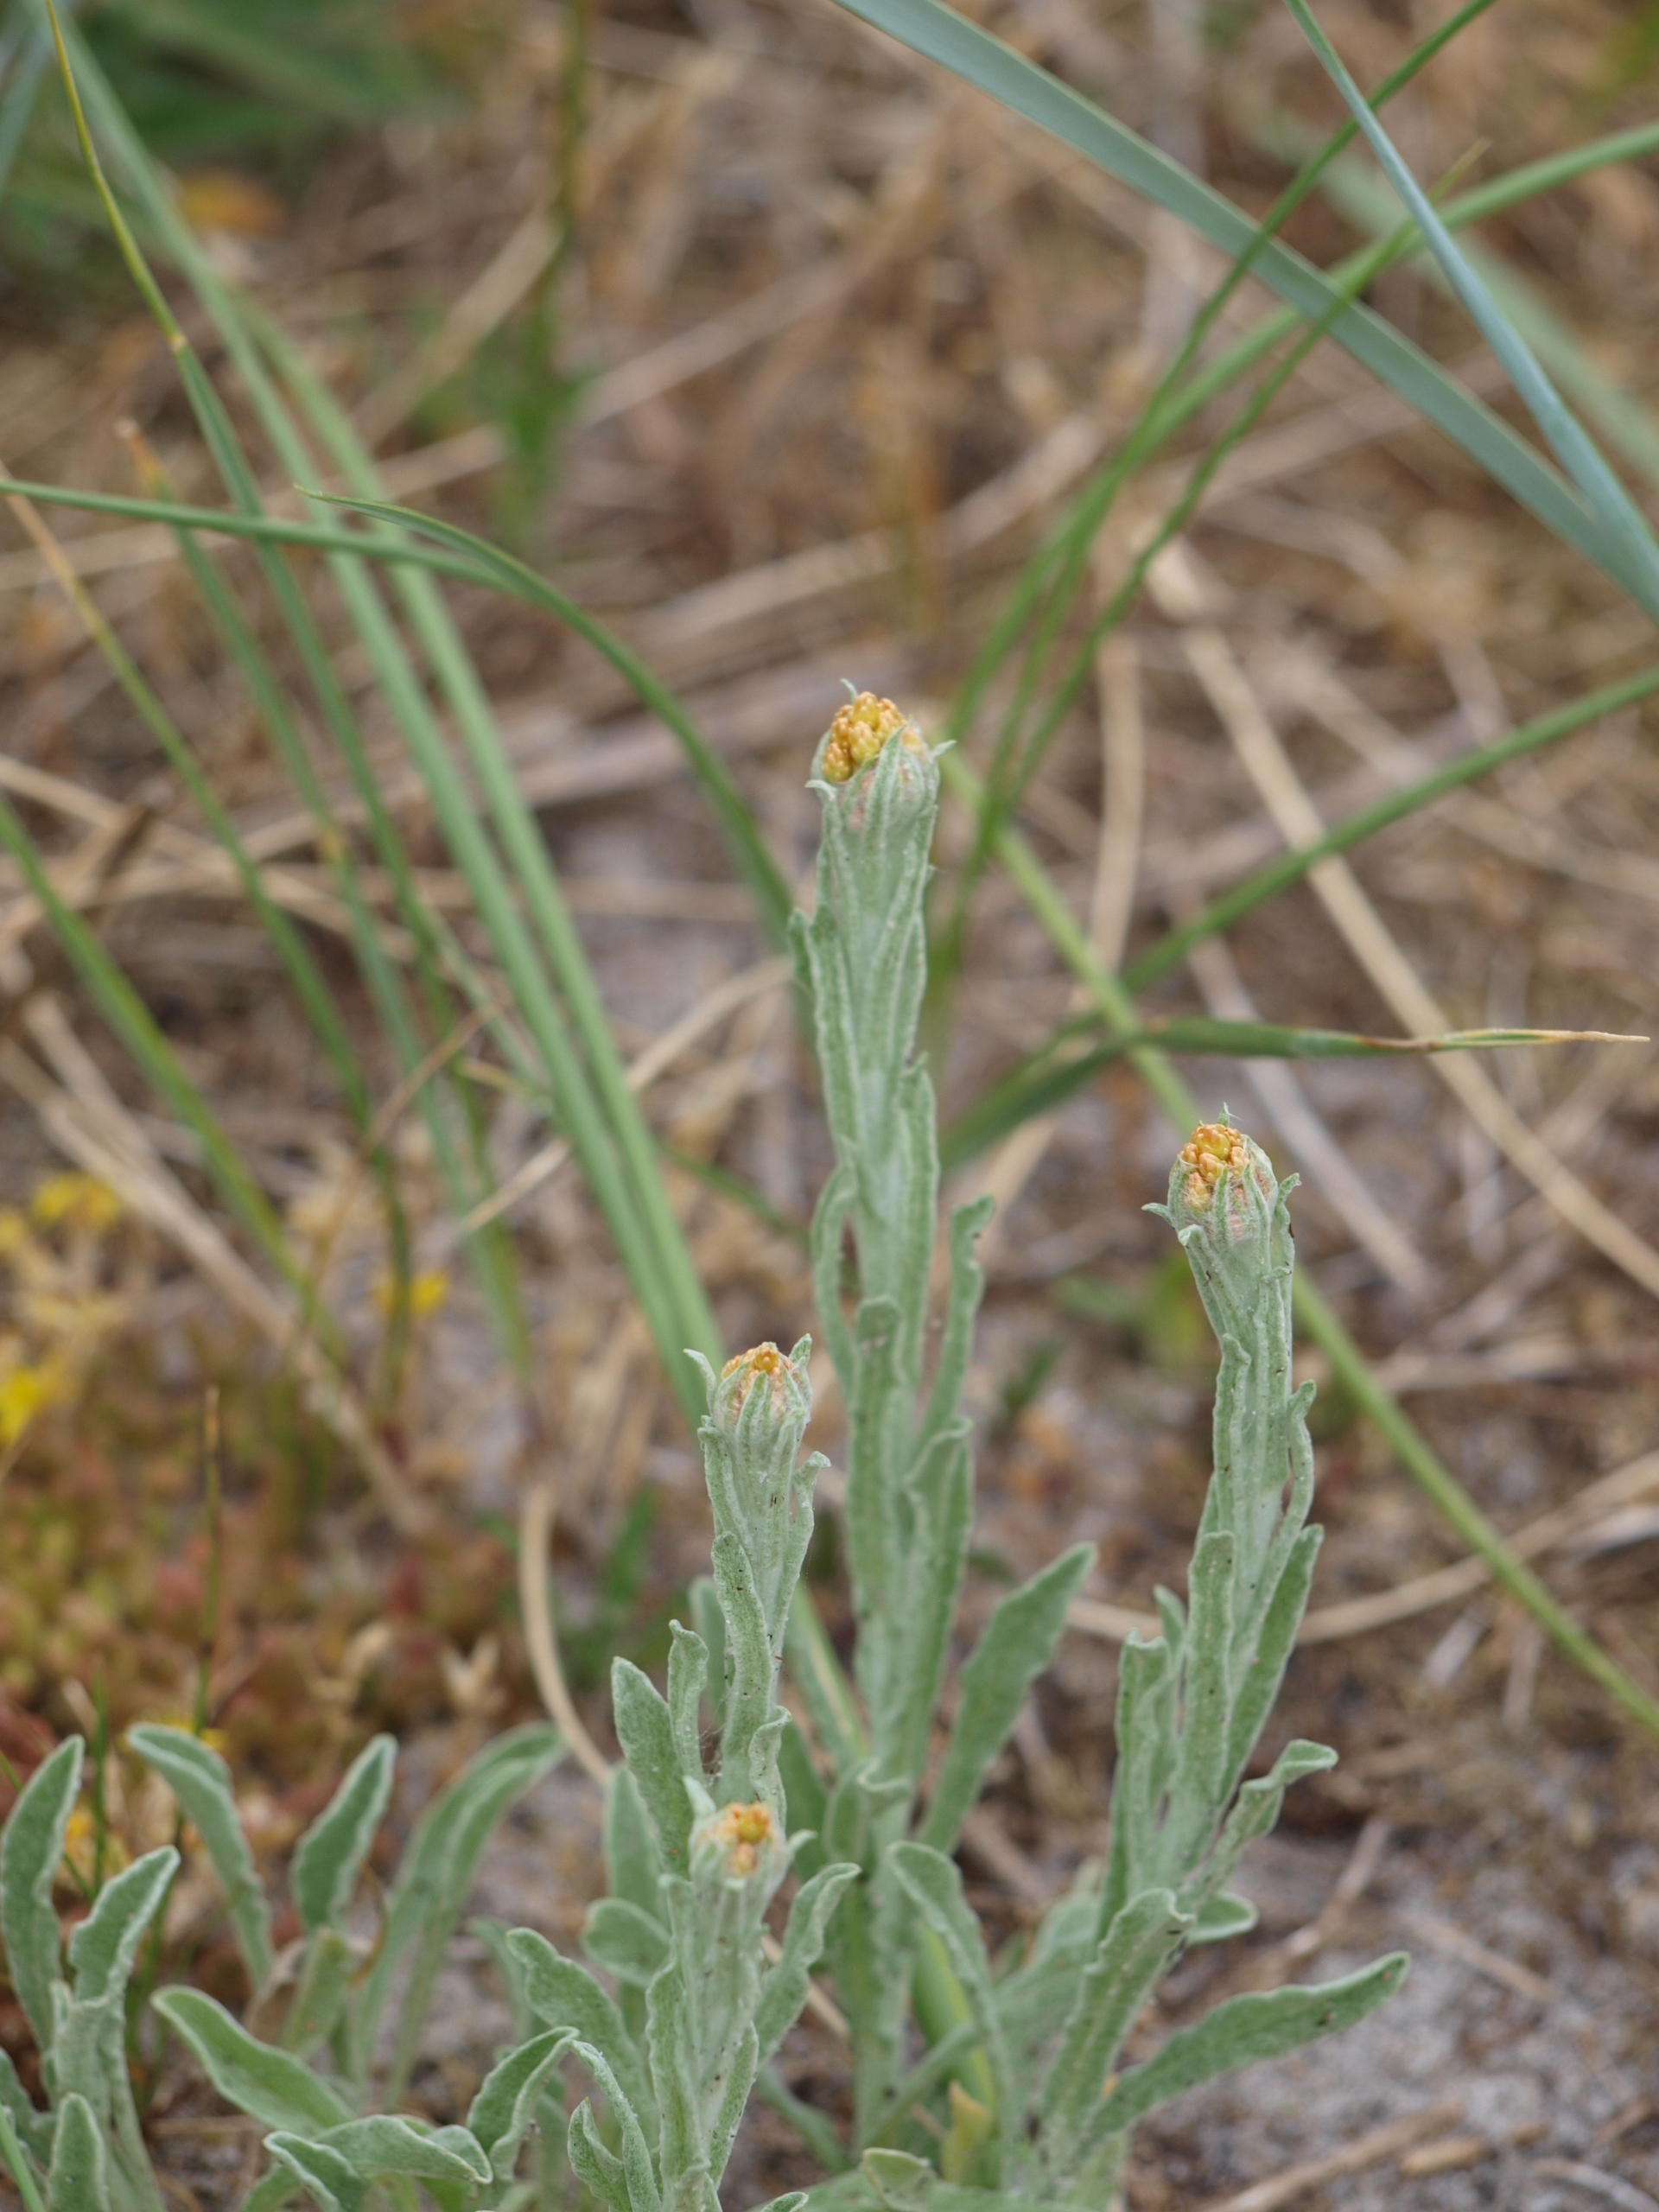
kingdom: Plantae
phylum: Tracheophyta
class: Magnoliopsida
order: Asterales
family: Asteraceae
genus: Helichrysum
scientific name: Helichrysum arenarium
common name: Gul evighedsblomst
